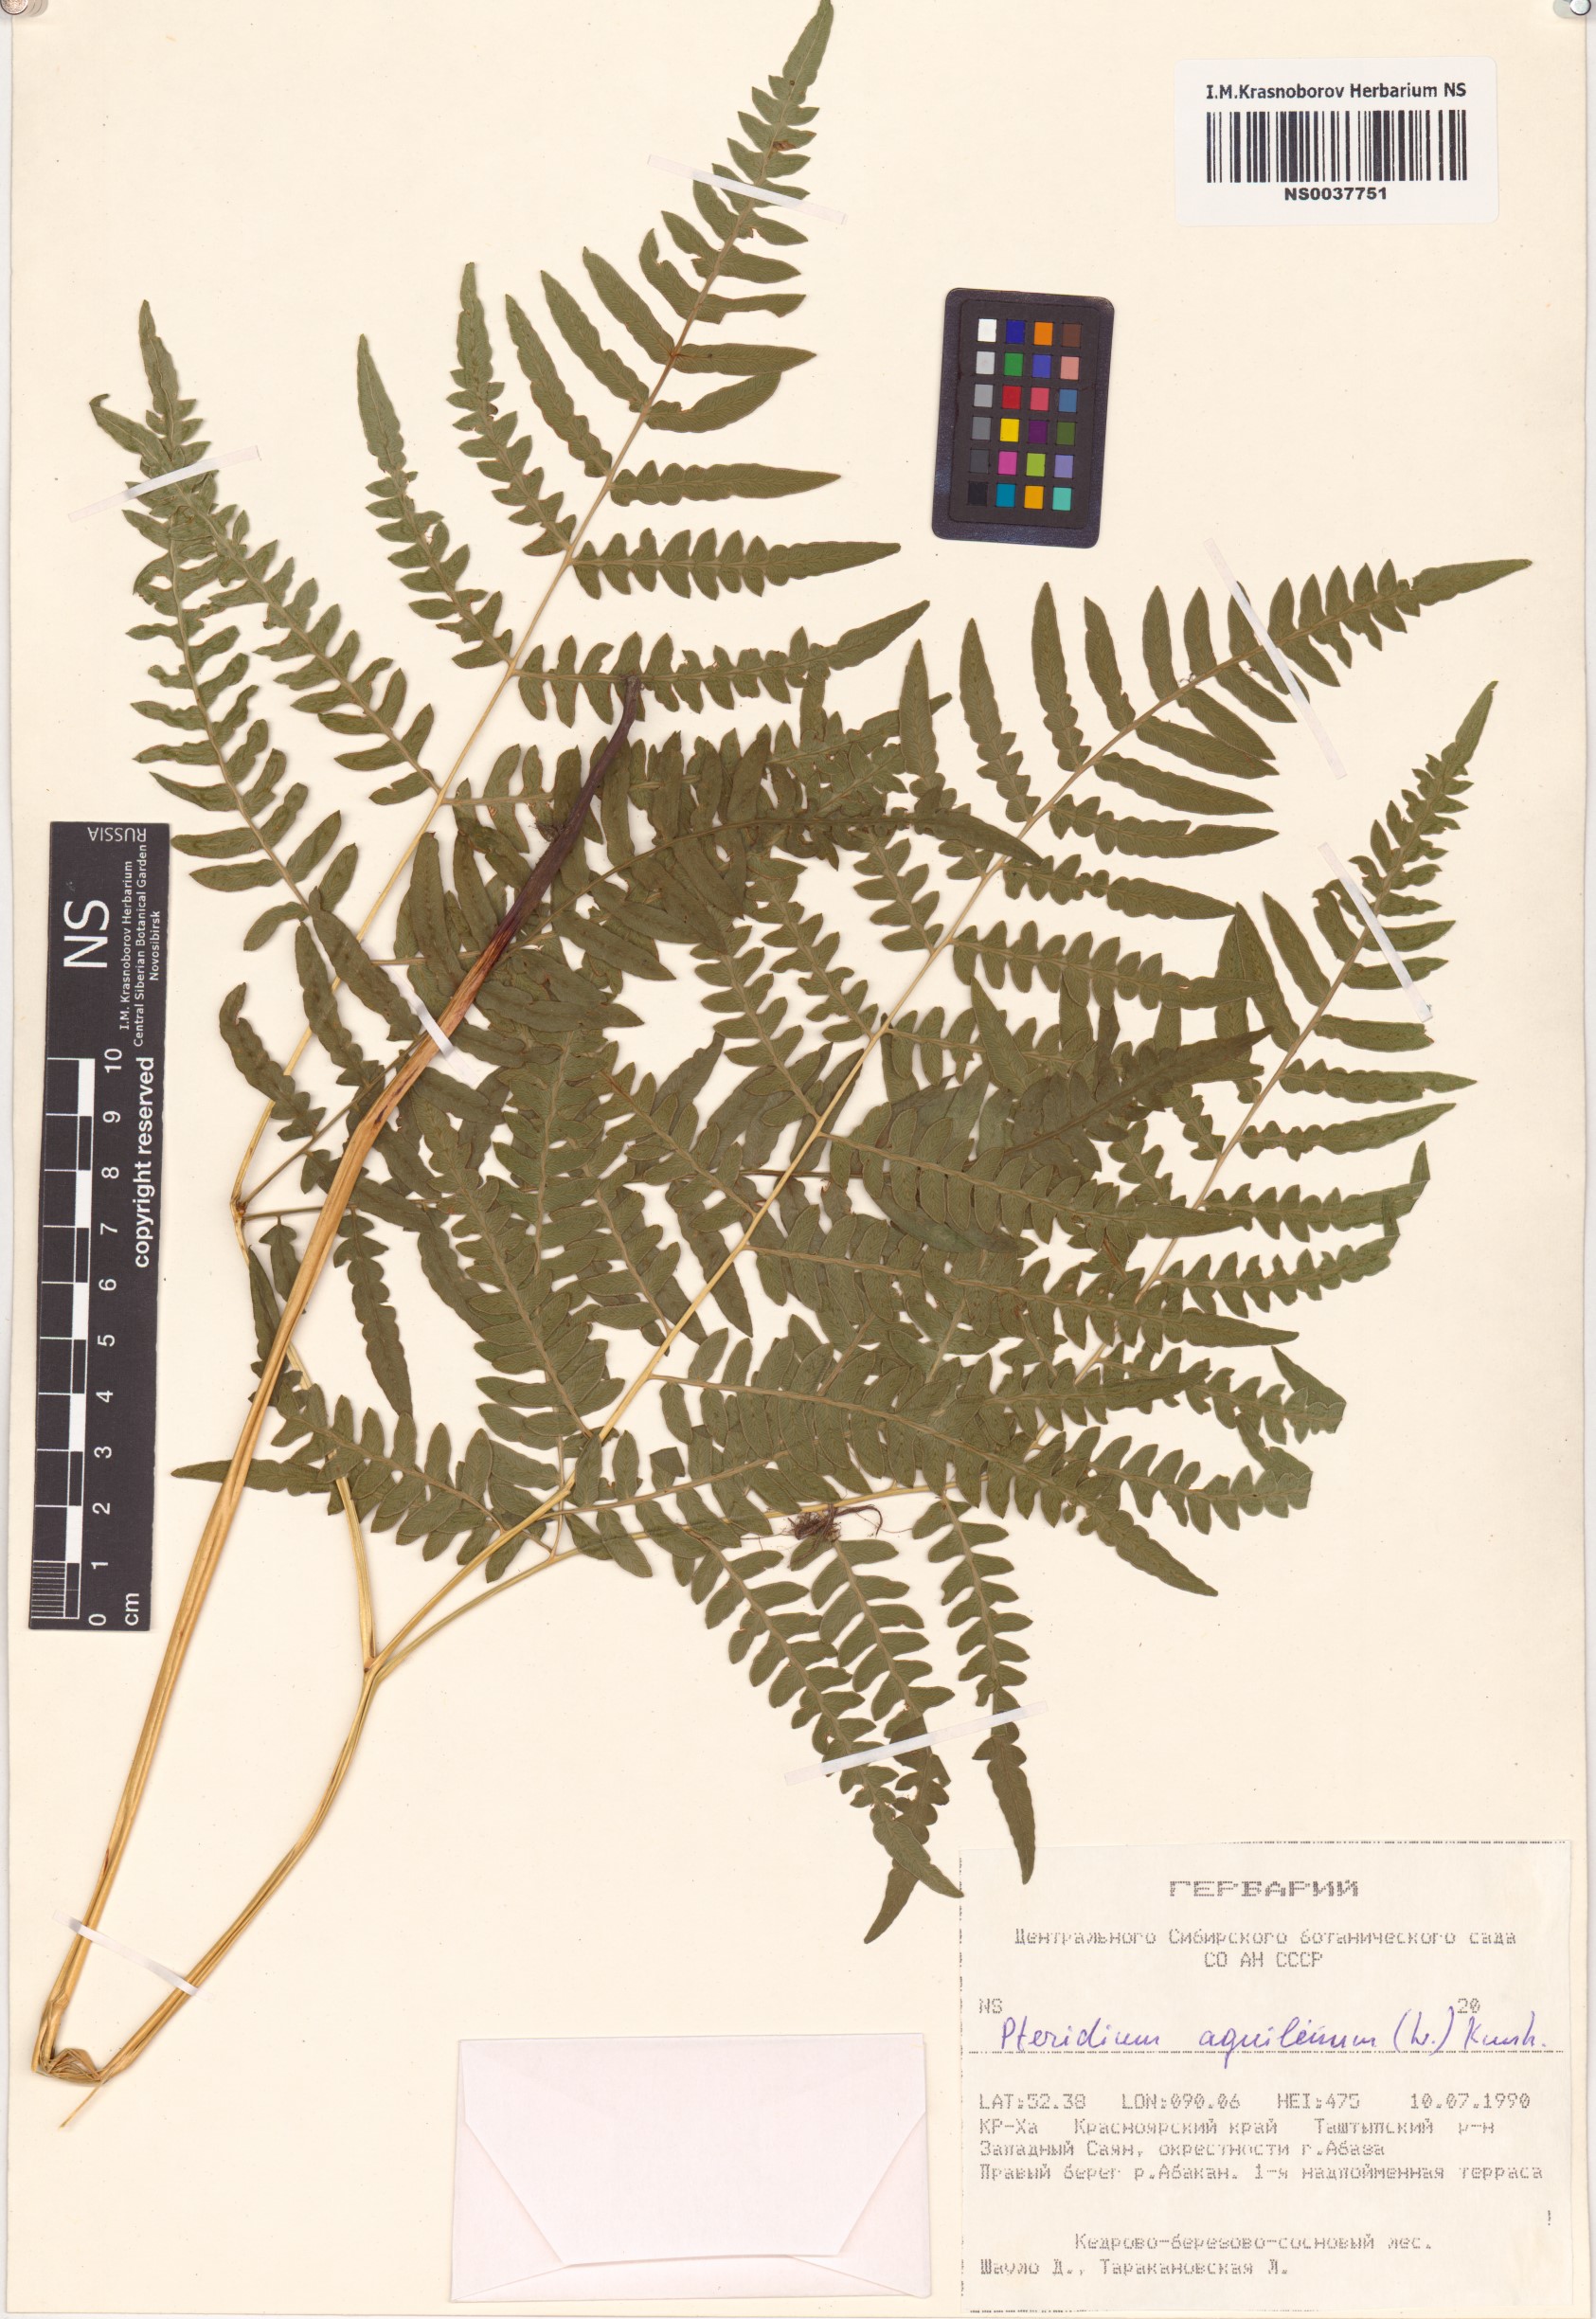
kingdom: Plantae
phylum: Tracheophyta
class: Polypodiopsida
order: Polypodiales
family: Dennstaedtiaceae
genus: Pteridium
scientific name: Pteridium aquilinum
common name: Bracken
